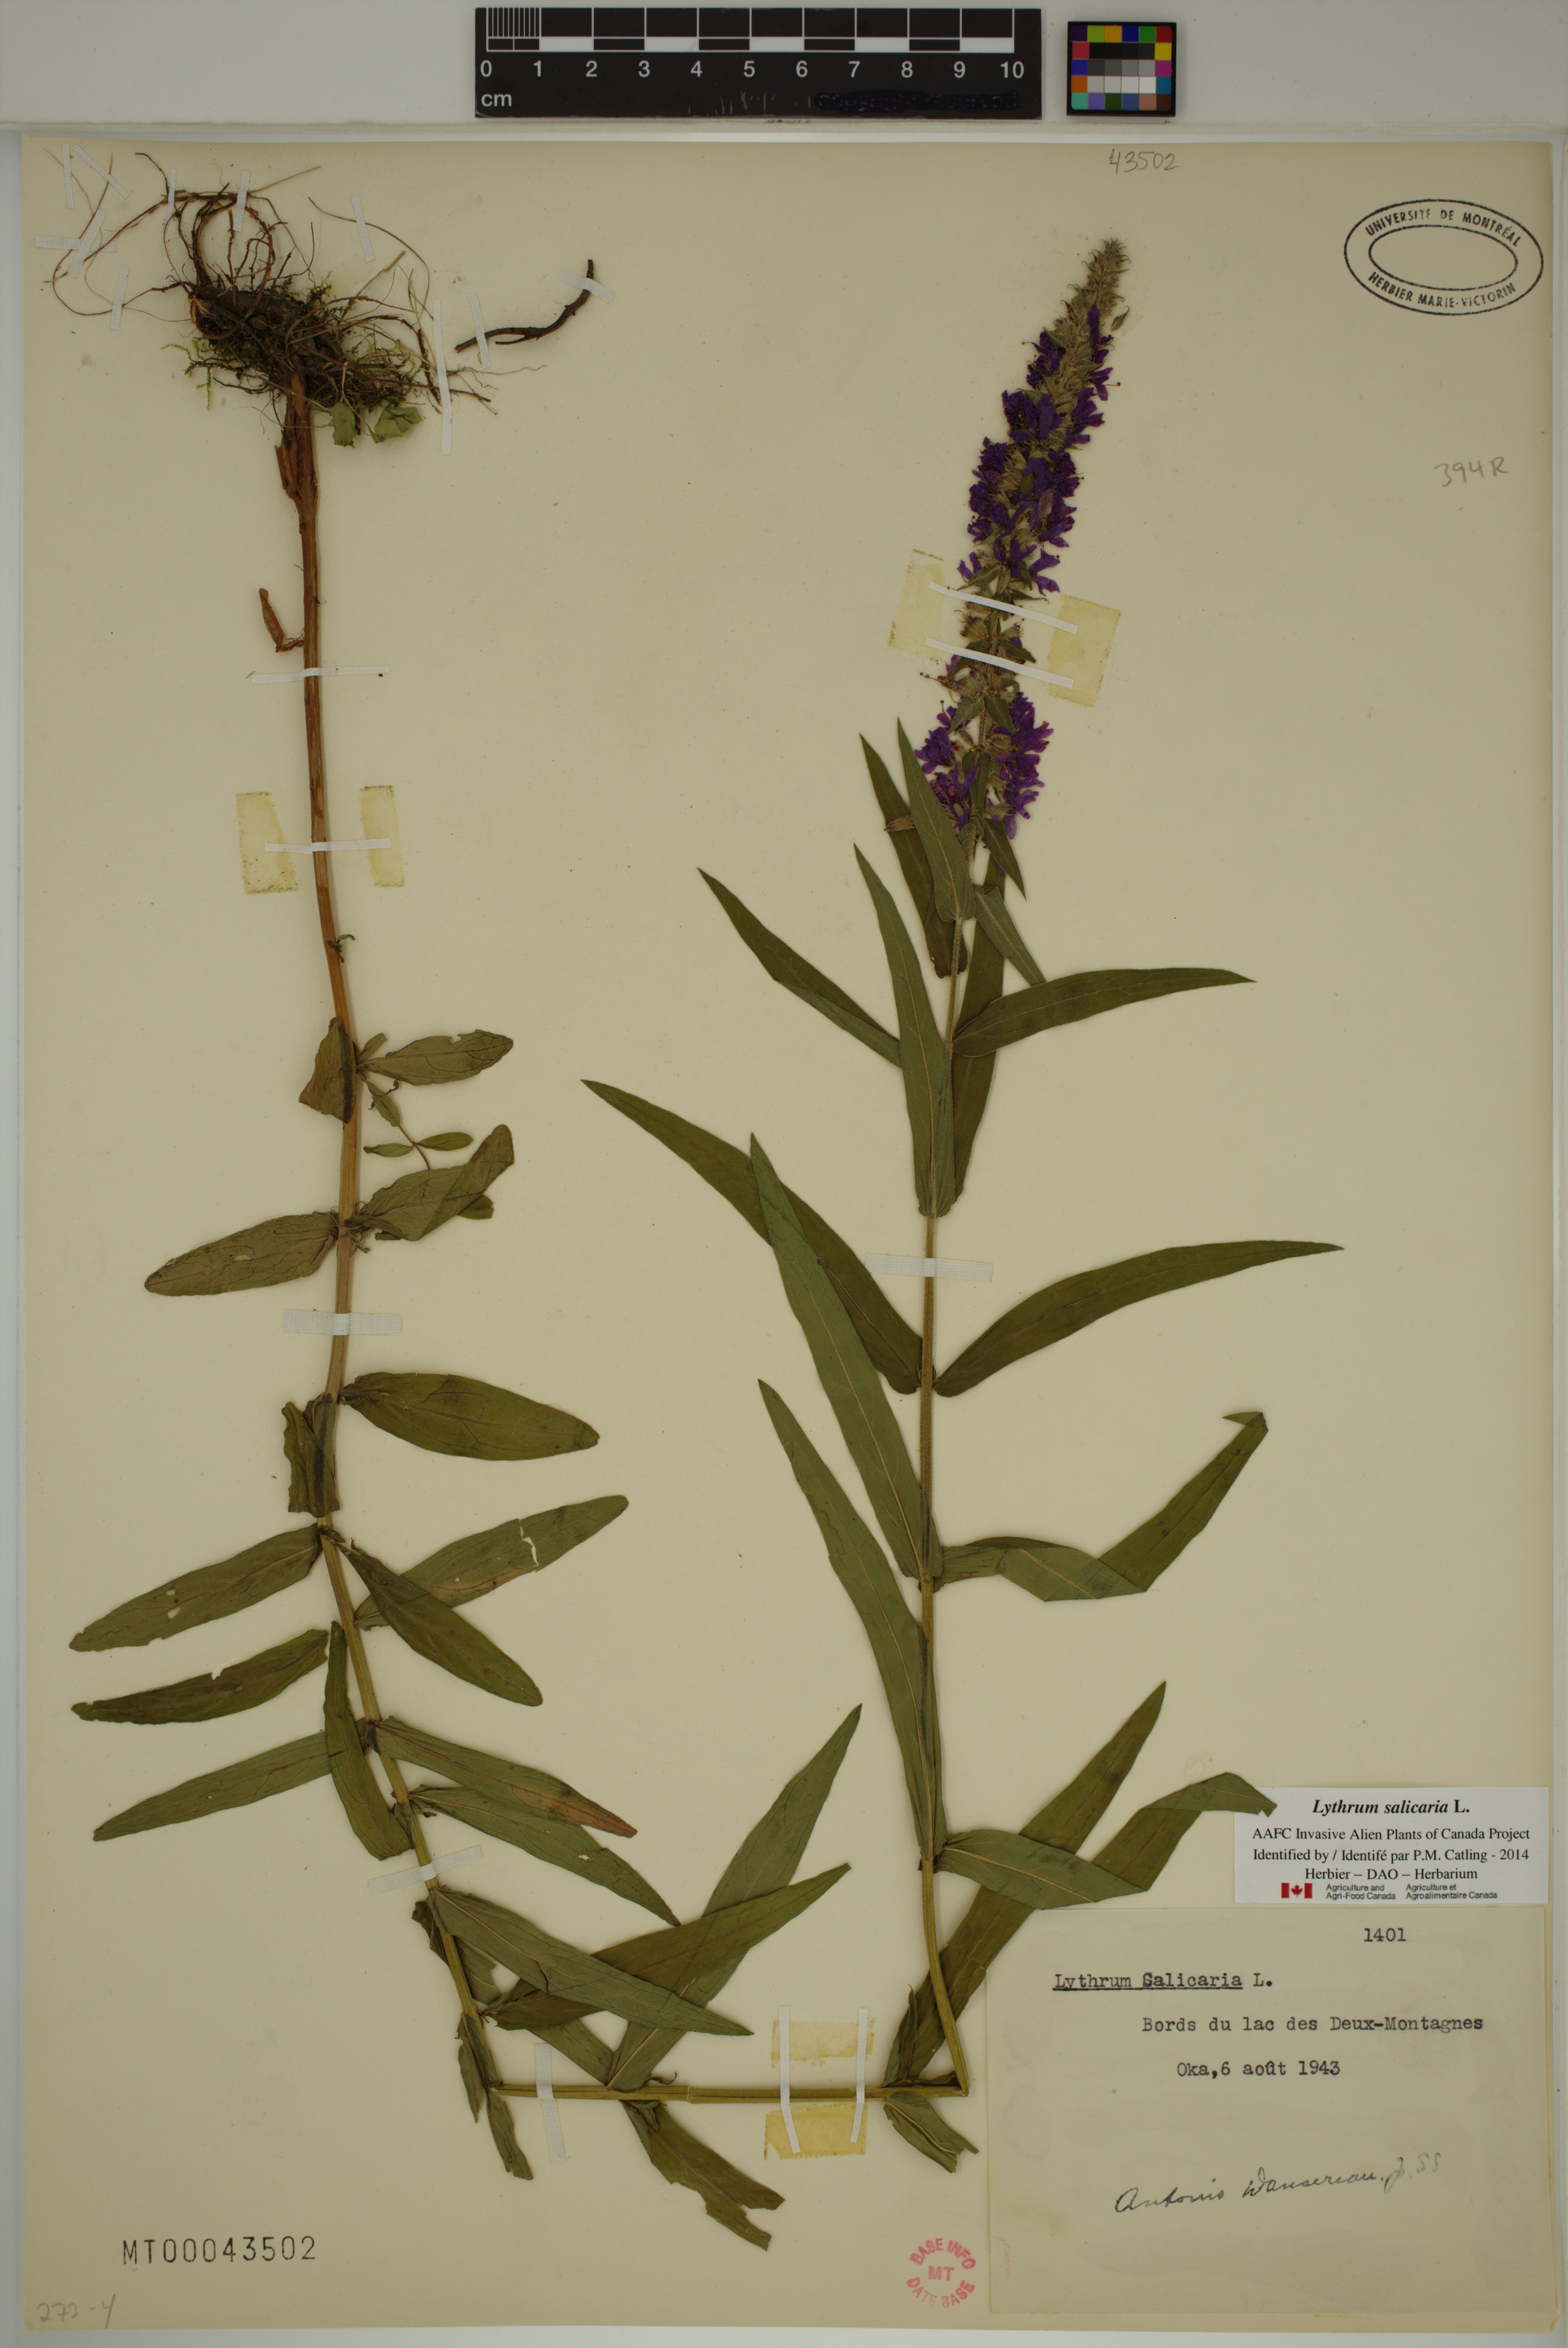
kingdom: Plantae
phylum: Tracheophyta
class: Magnoliopsida
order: Myrtales
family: Lythraceae
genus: Lythrum
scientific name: Lythrum salicaria
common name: Purple loosestrife
